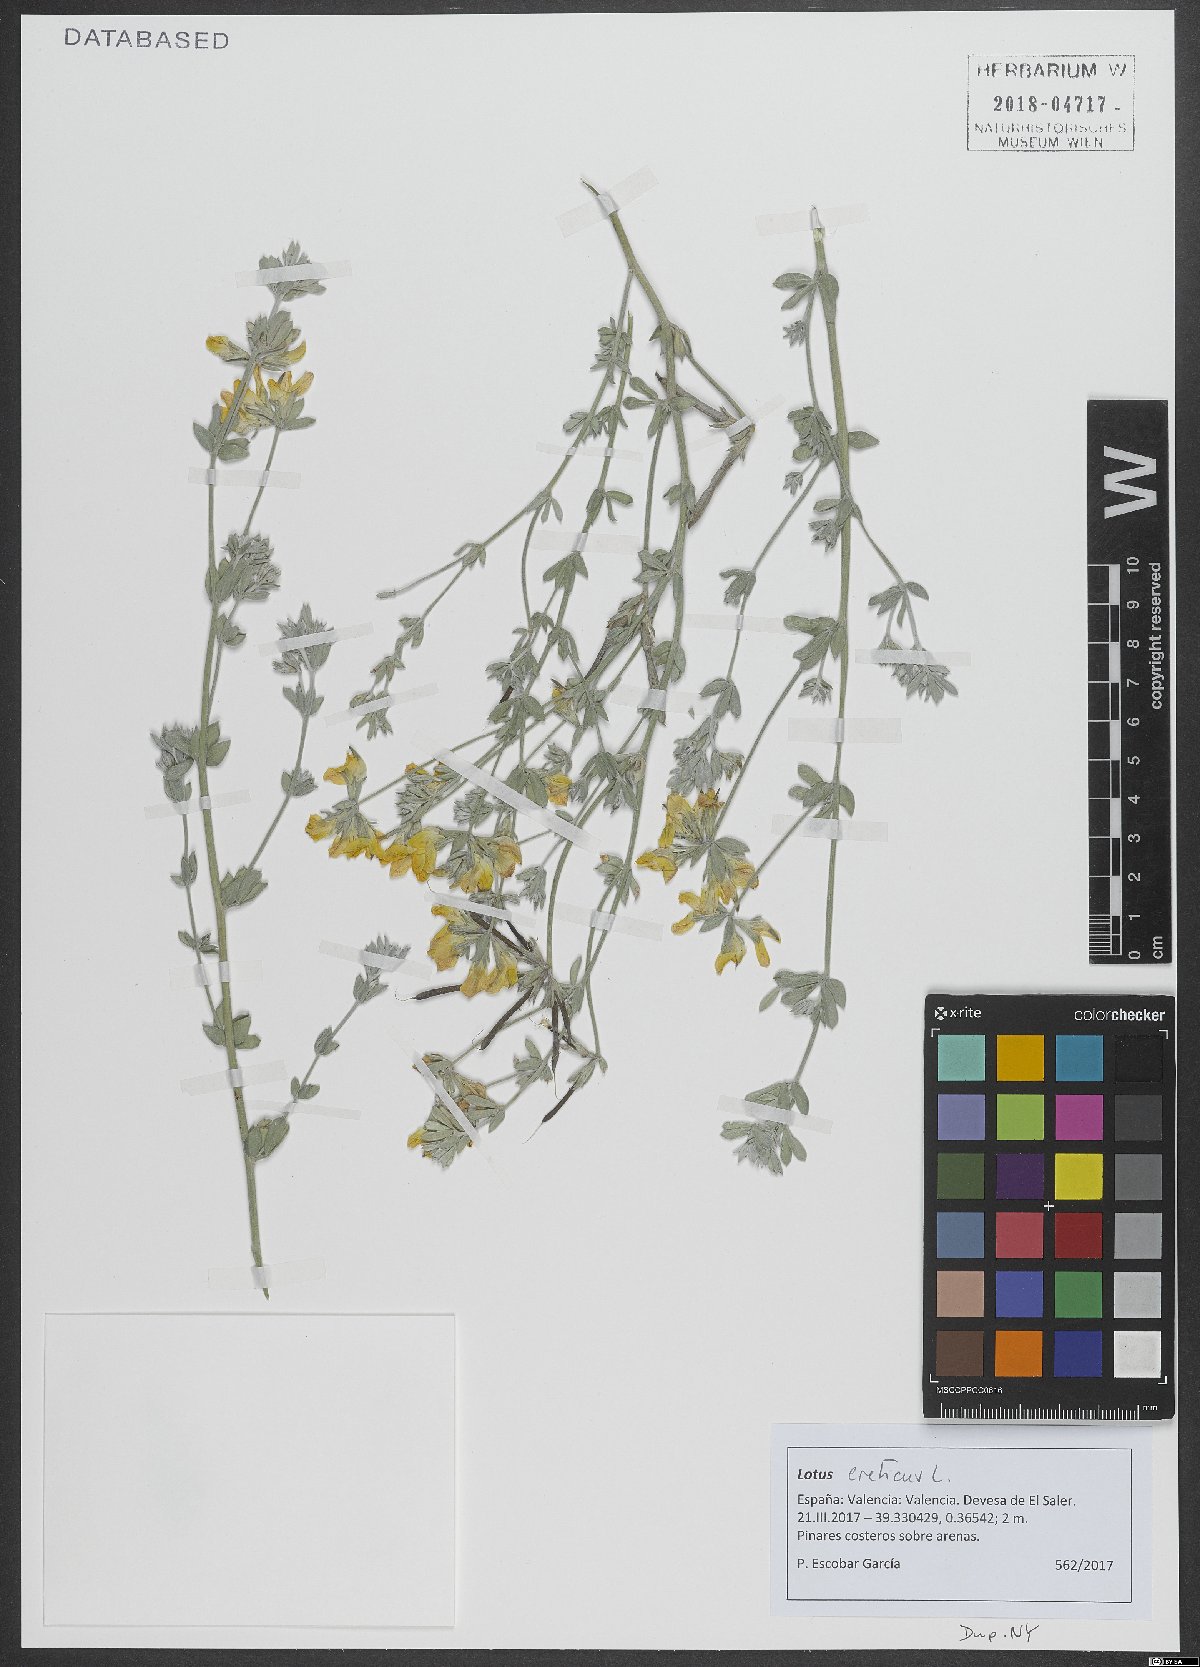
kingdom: Plantae
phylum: Tracheophyta
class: Magnoliopsida
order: Fabales
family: Fabaceae
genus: Lotus
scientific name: Lotus creticus
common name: Cretan bird's-foot trefoil
